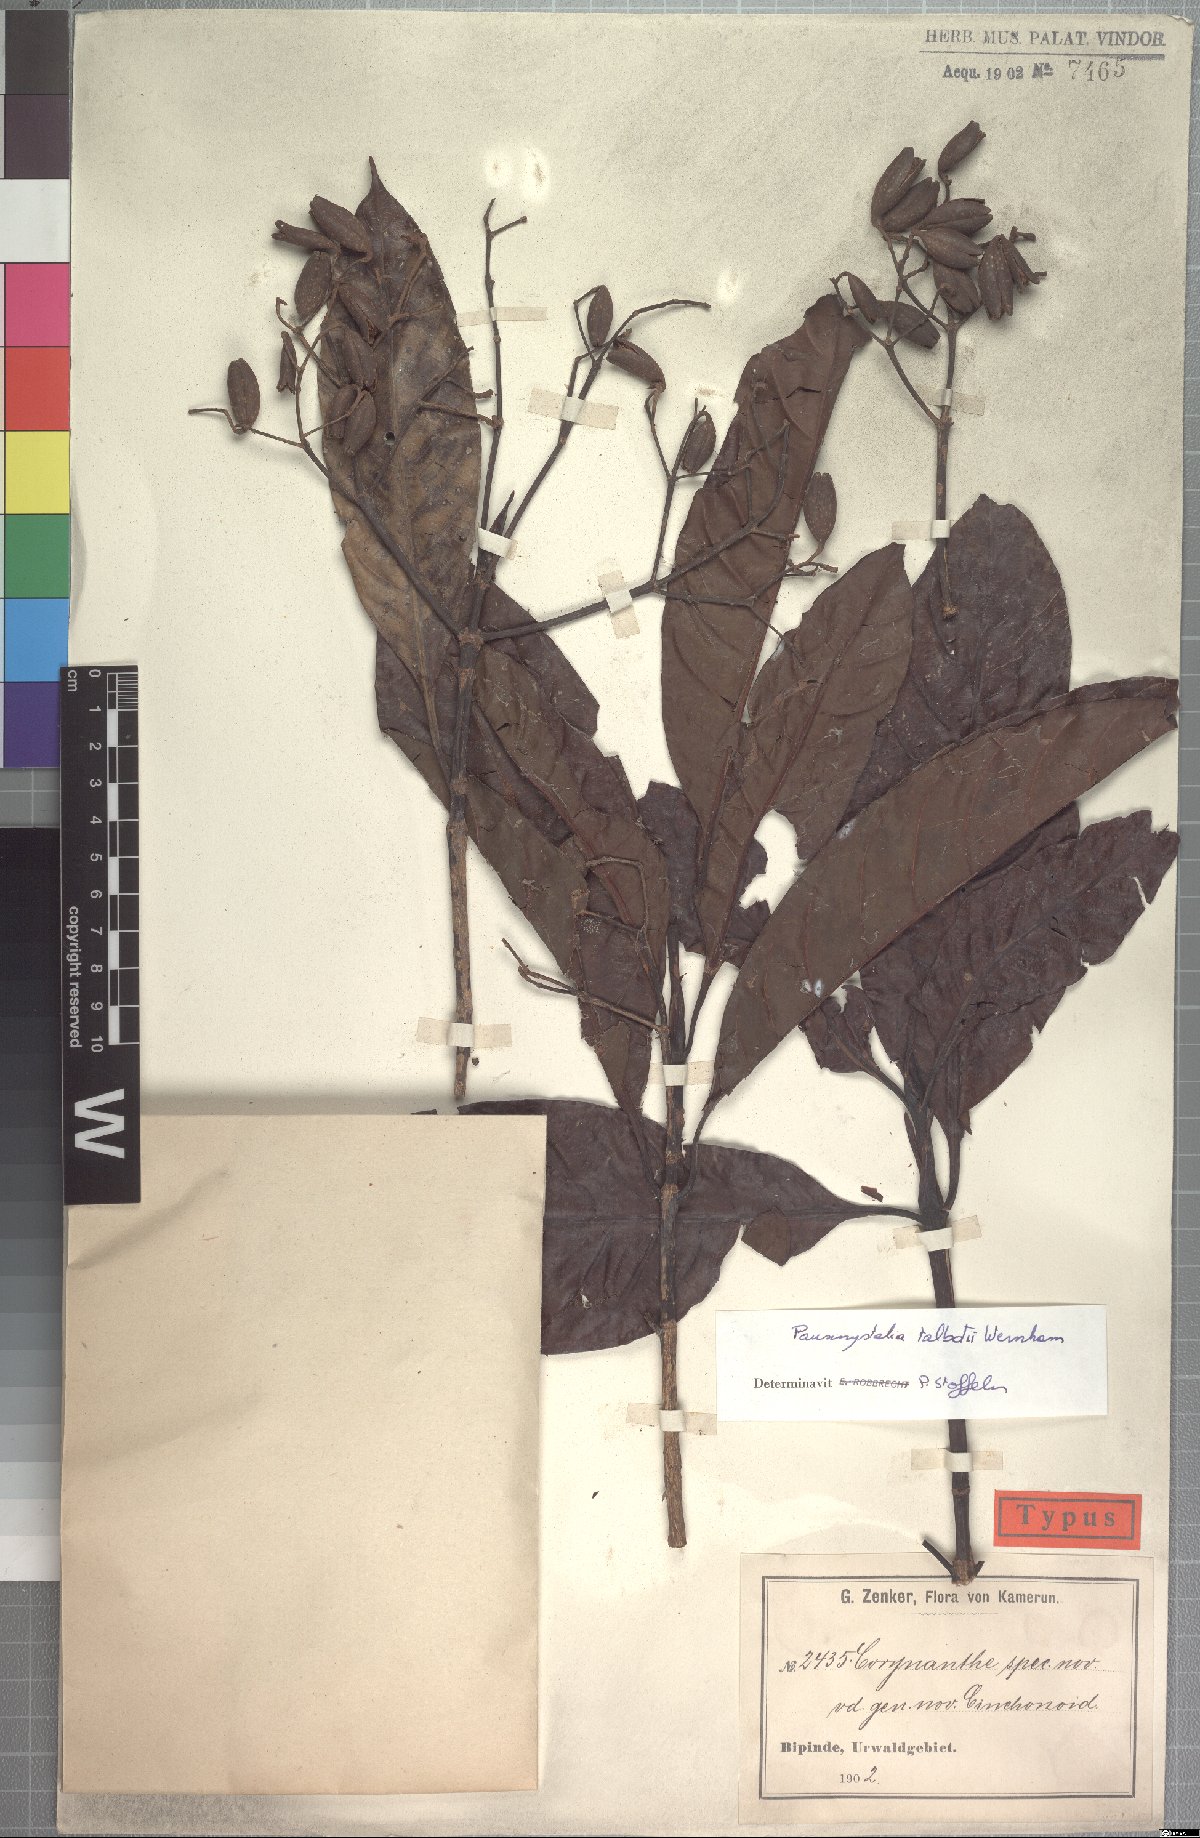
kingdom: Plantae
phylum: Tracheophyta
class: Magnoliopsida
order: Gentianales
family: Rubiaceae
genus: Corynanthe
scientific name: Corynanthe talbotii
